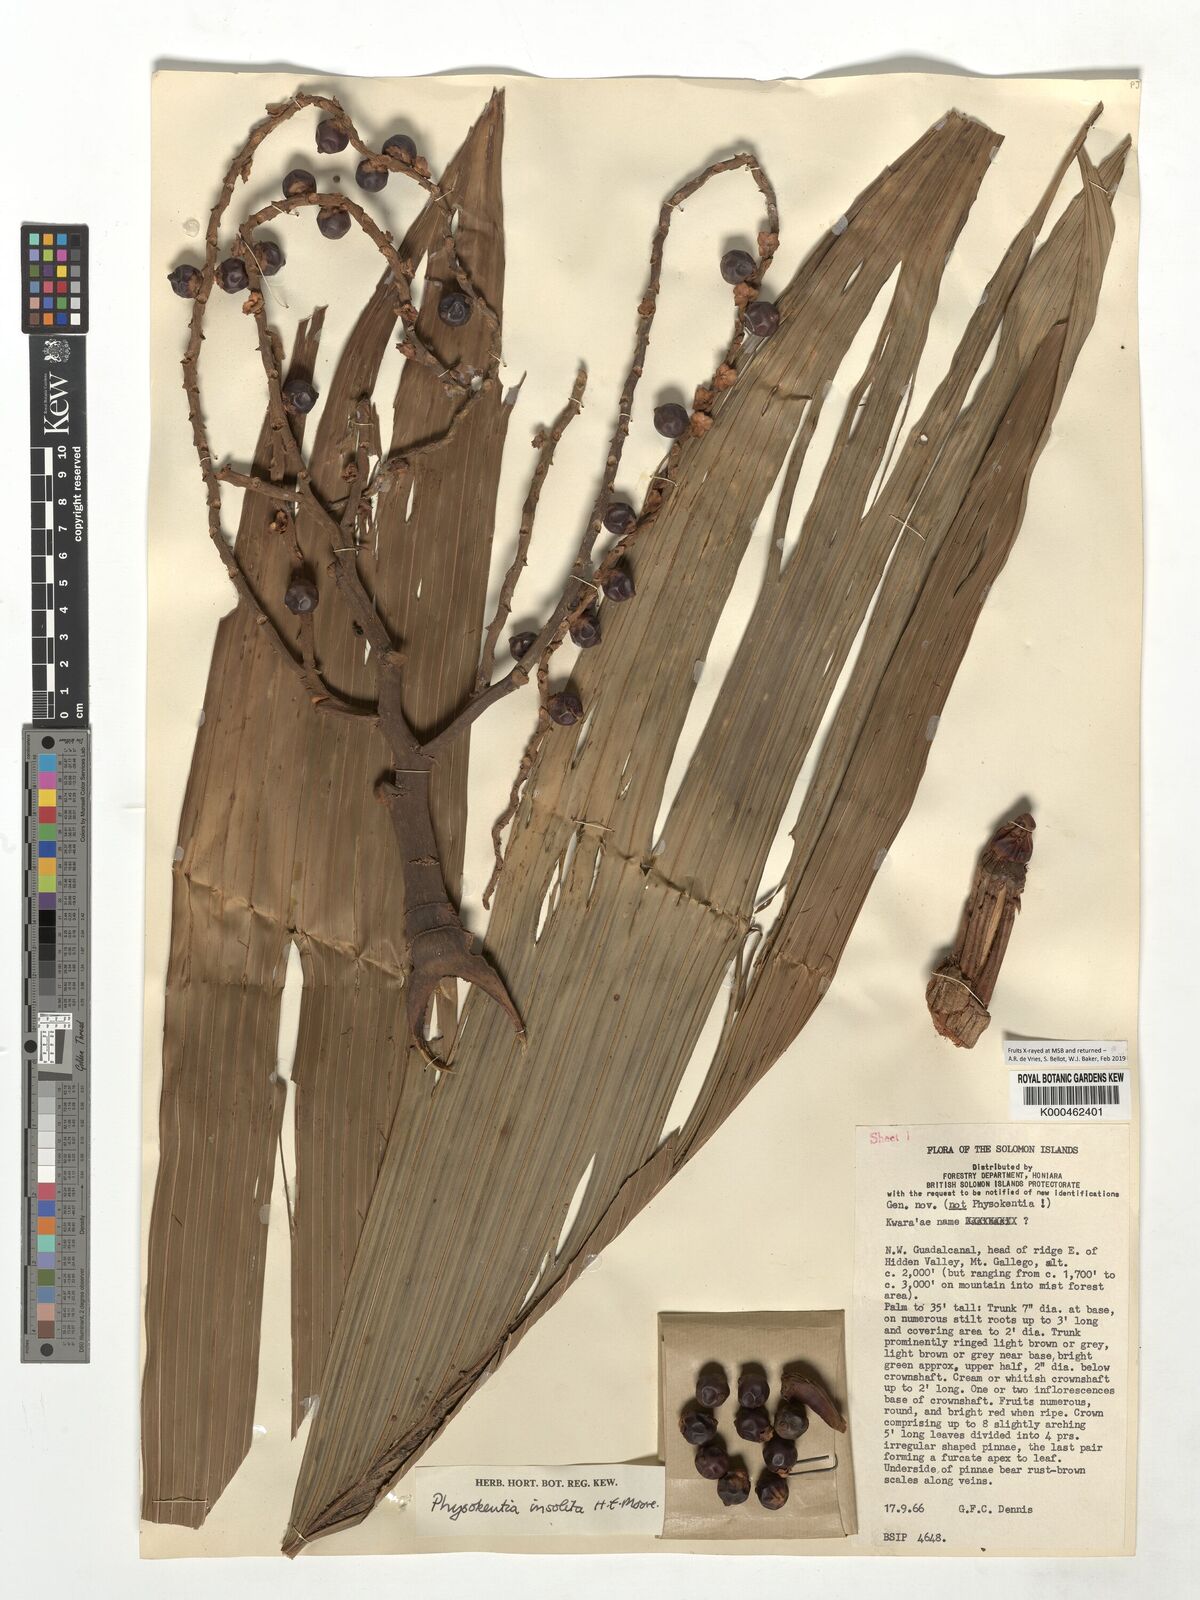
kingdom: Plantae
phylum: Tracheophyta
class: Liliopsida
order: Arecales
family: Arecaceae
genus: Physokentia
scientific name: Physokentia insolita
